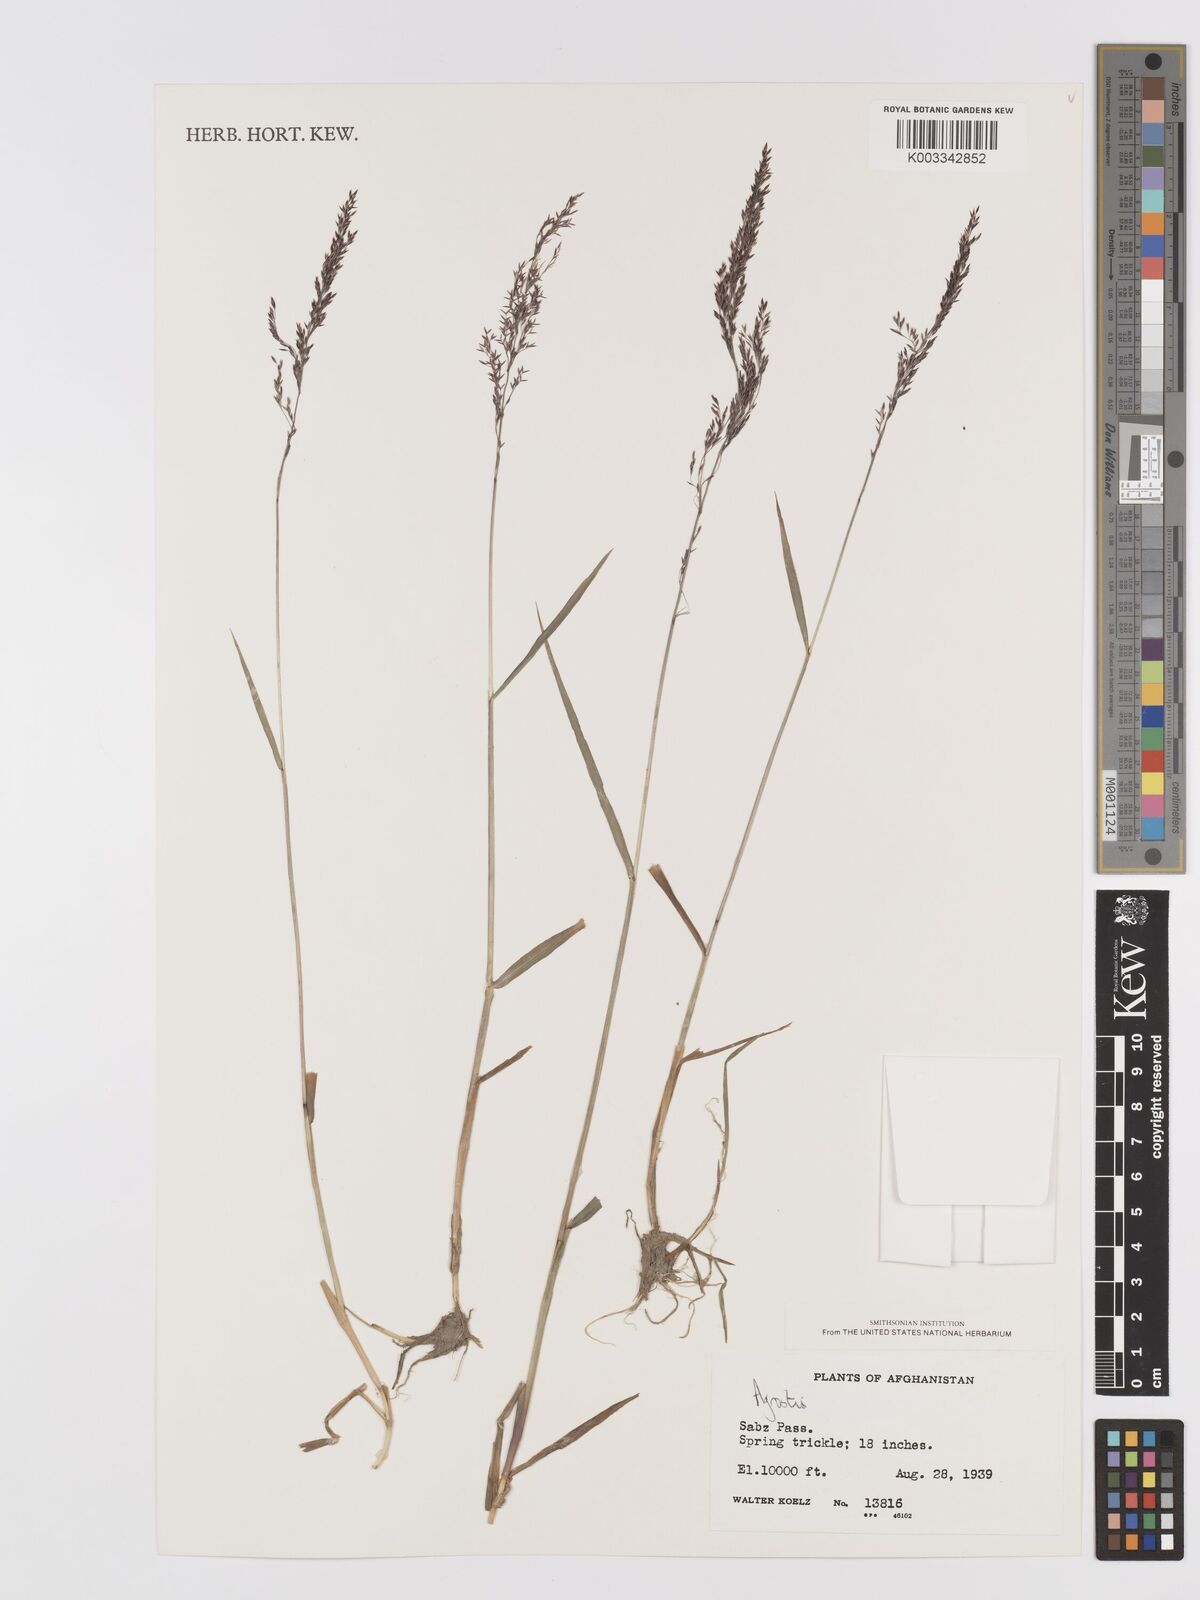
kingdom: Plantae
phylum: Tracheophyta
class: Liliopsida
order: Poales
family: Poaceae
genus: Agrostis
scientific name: Agrostis
